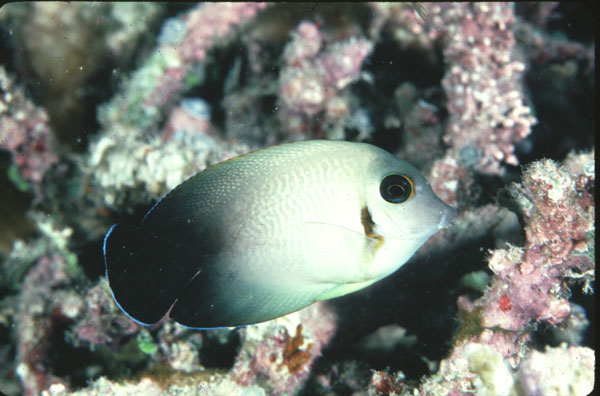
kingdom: Animalia
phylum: Chordata
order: Perciformes
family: Acanthuridae
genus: Acanthurus
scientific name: Acanthurus pyroferus
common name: Chocolate surgeonfish
